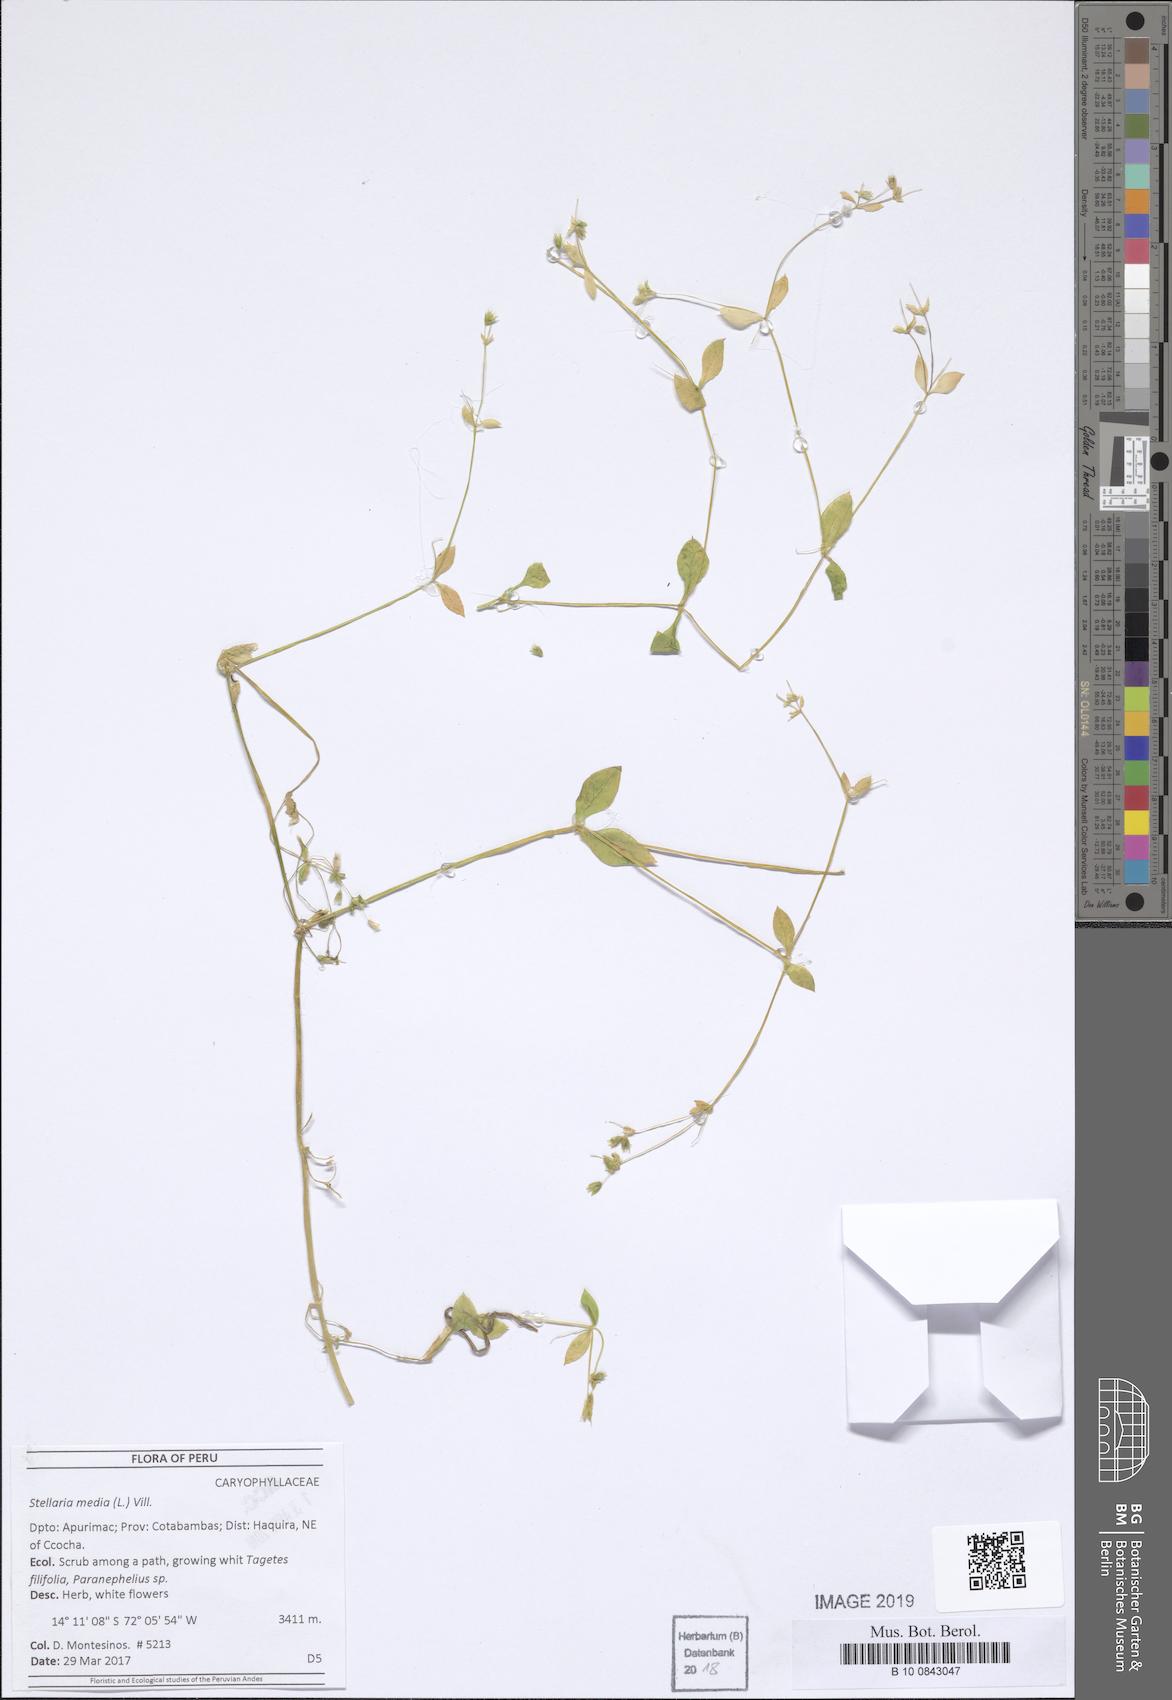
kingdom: Plantae
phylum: Tracheophyta
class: Magnoliopsida
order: Caryophyllales
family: Caryophyllaceae
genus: Stellaria
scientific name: Stellaria media
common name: Common chickweed
